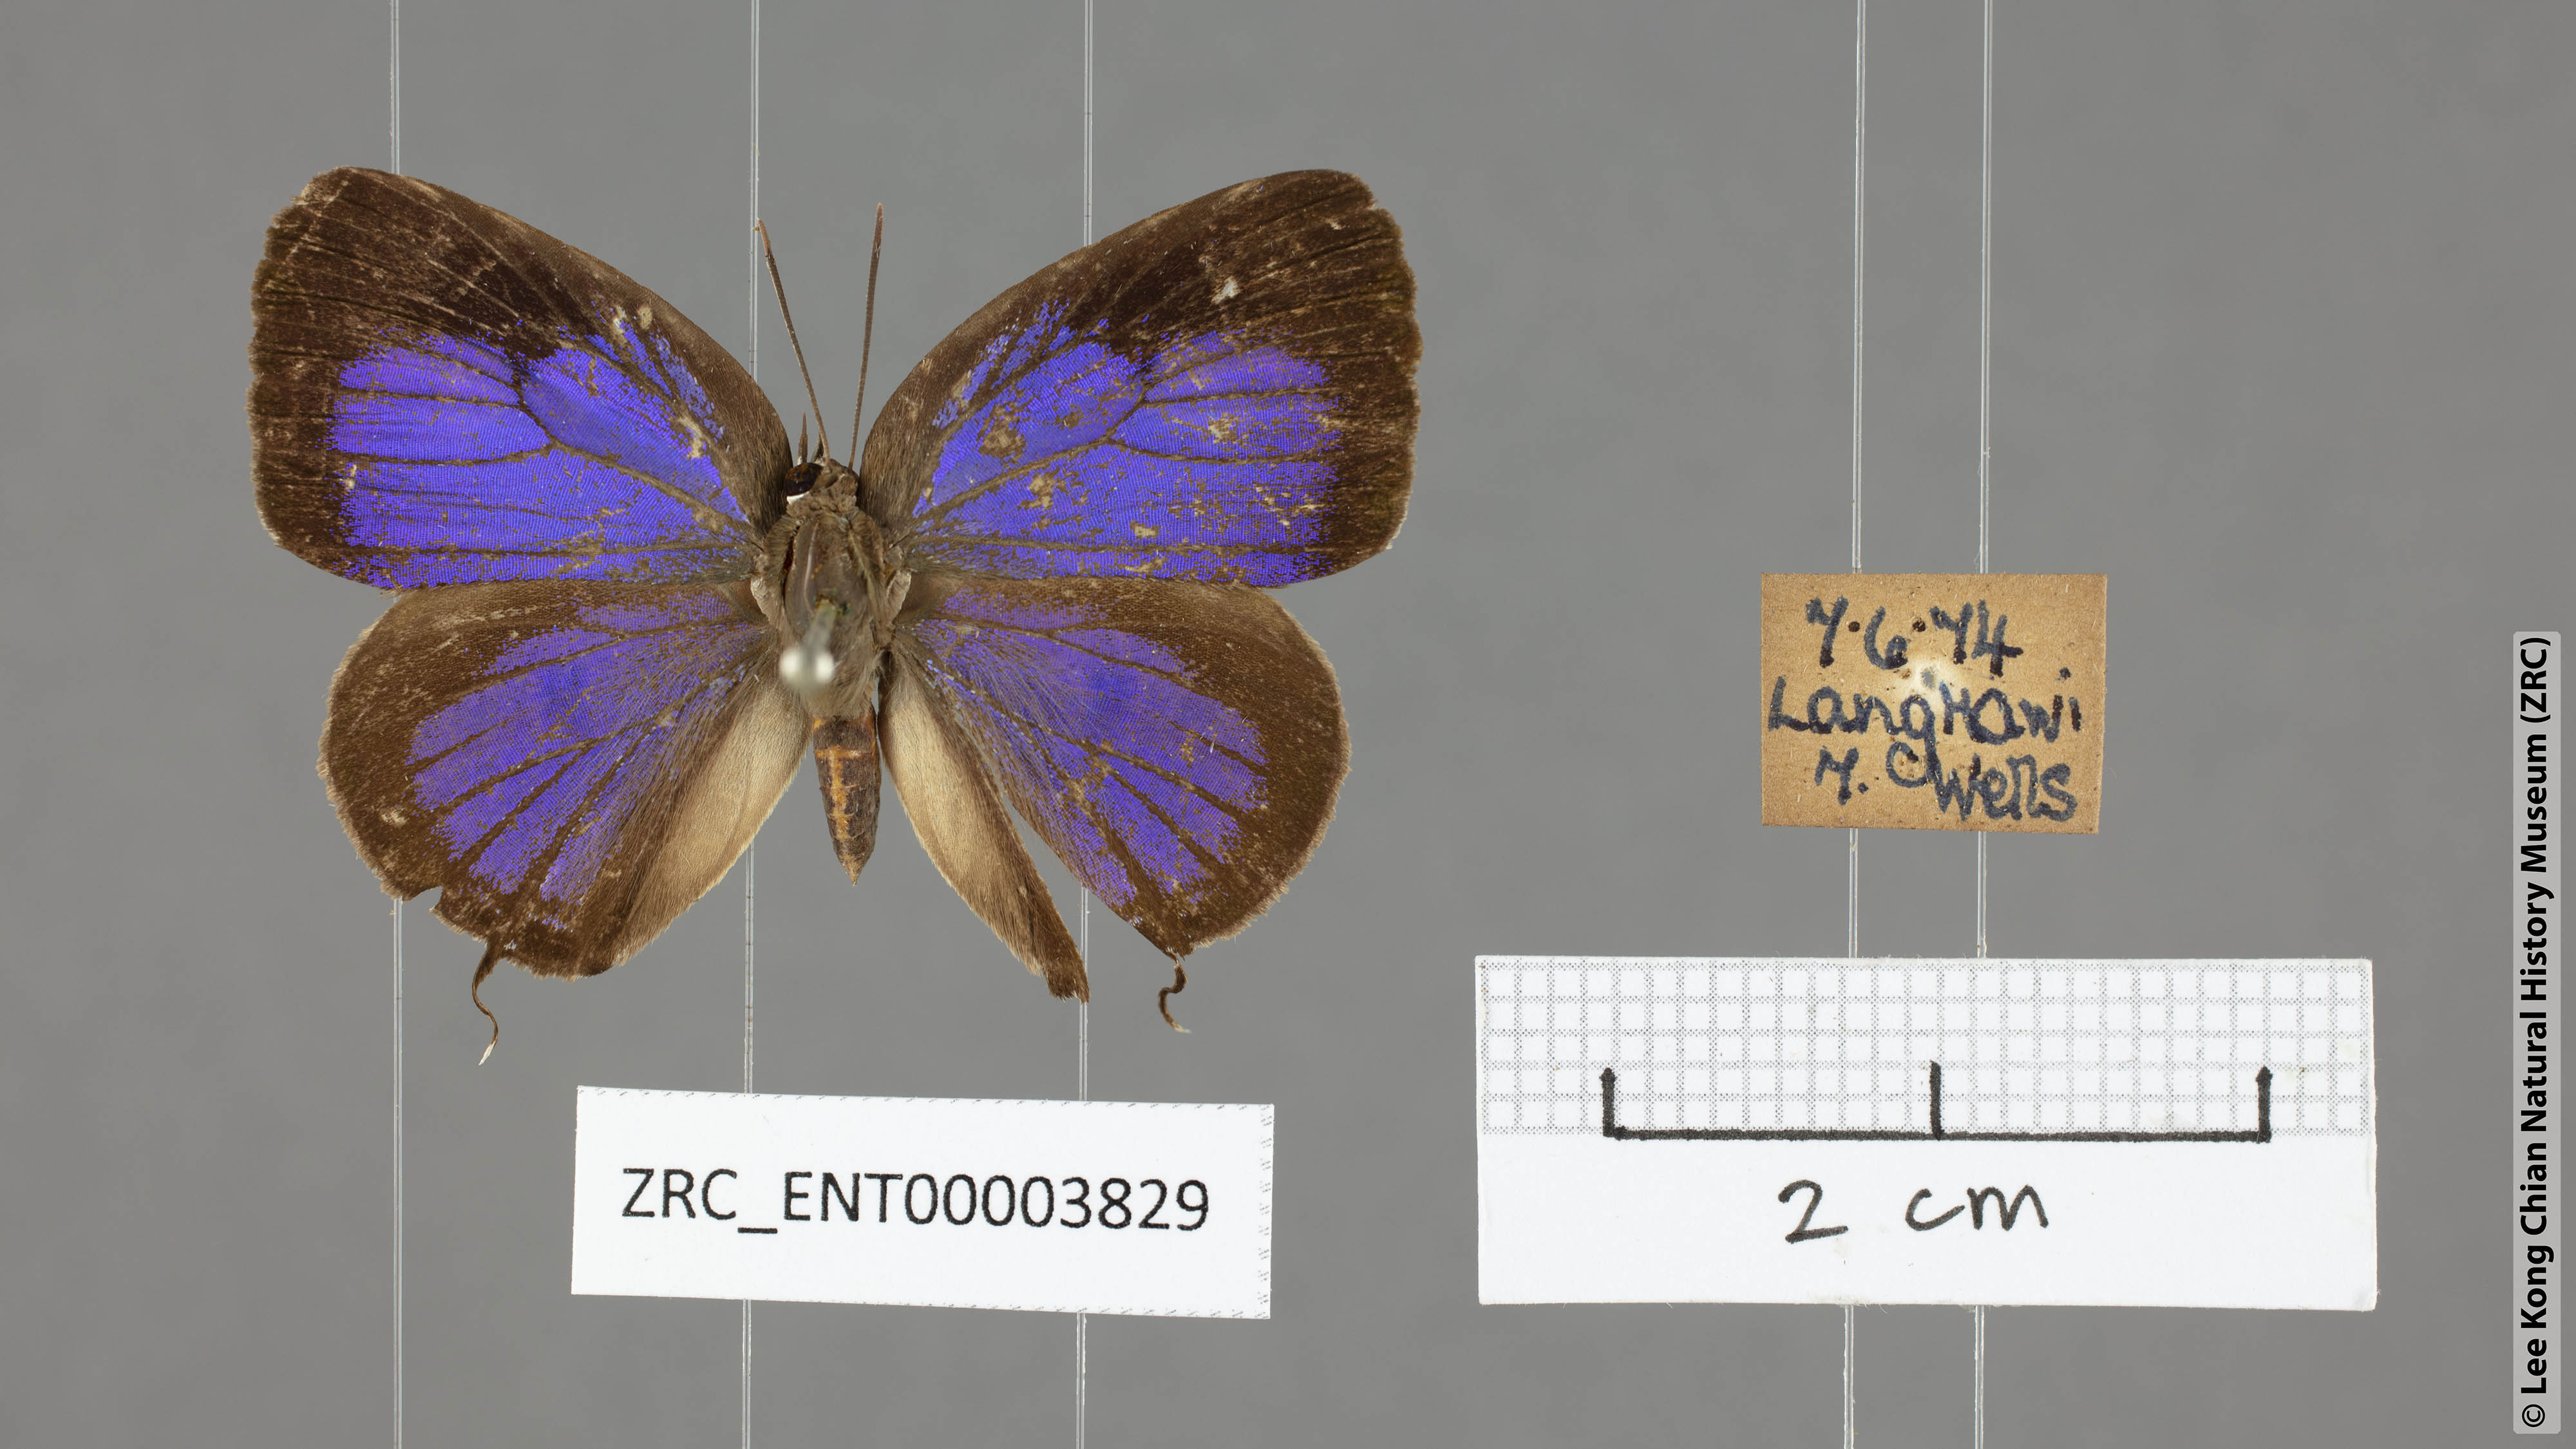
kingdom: Animalia
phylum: Arthropoda
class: Insecta
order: Lepidoptera
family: Lycaenidae
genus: Arhopala
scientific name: Arhopala alitaeus
